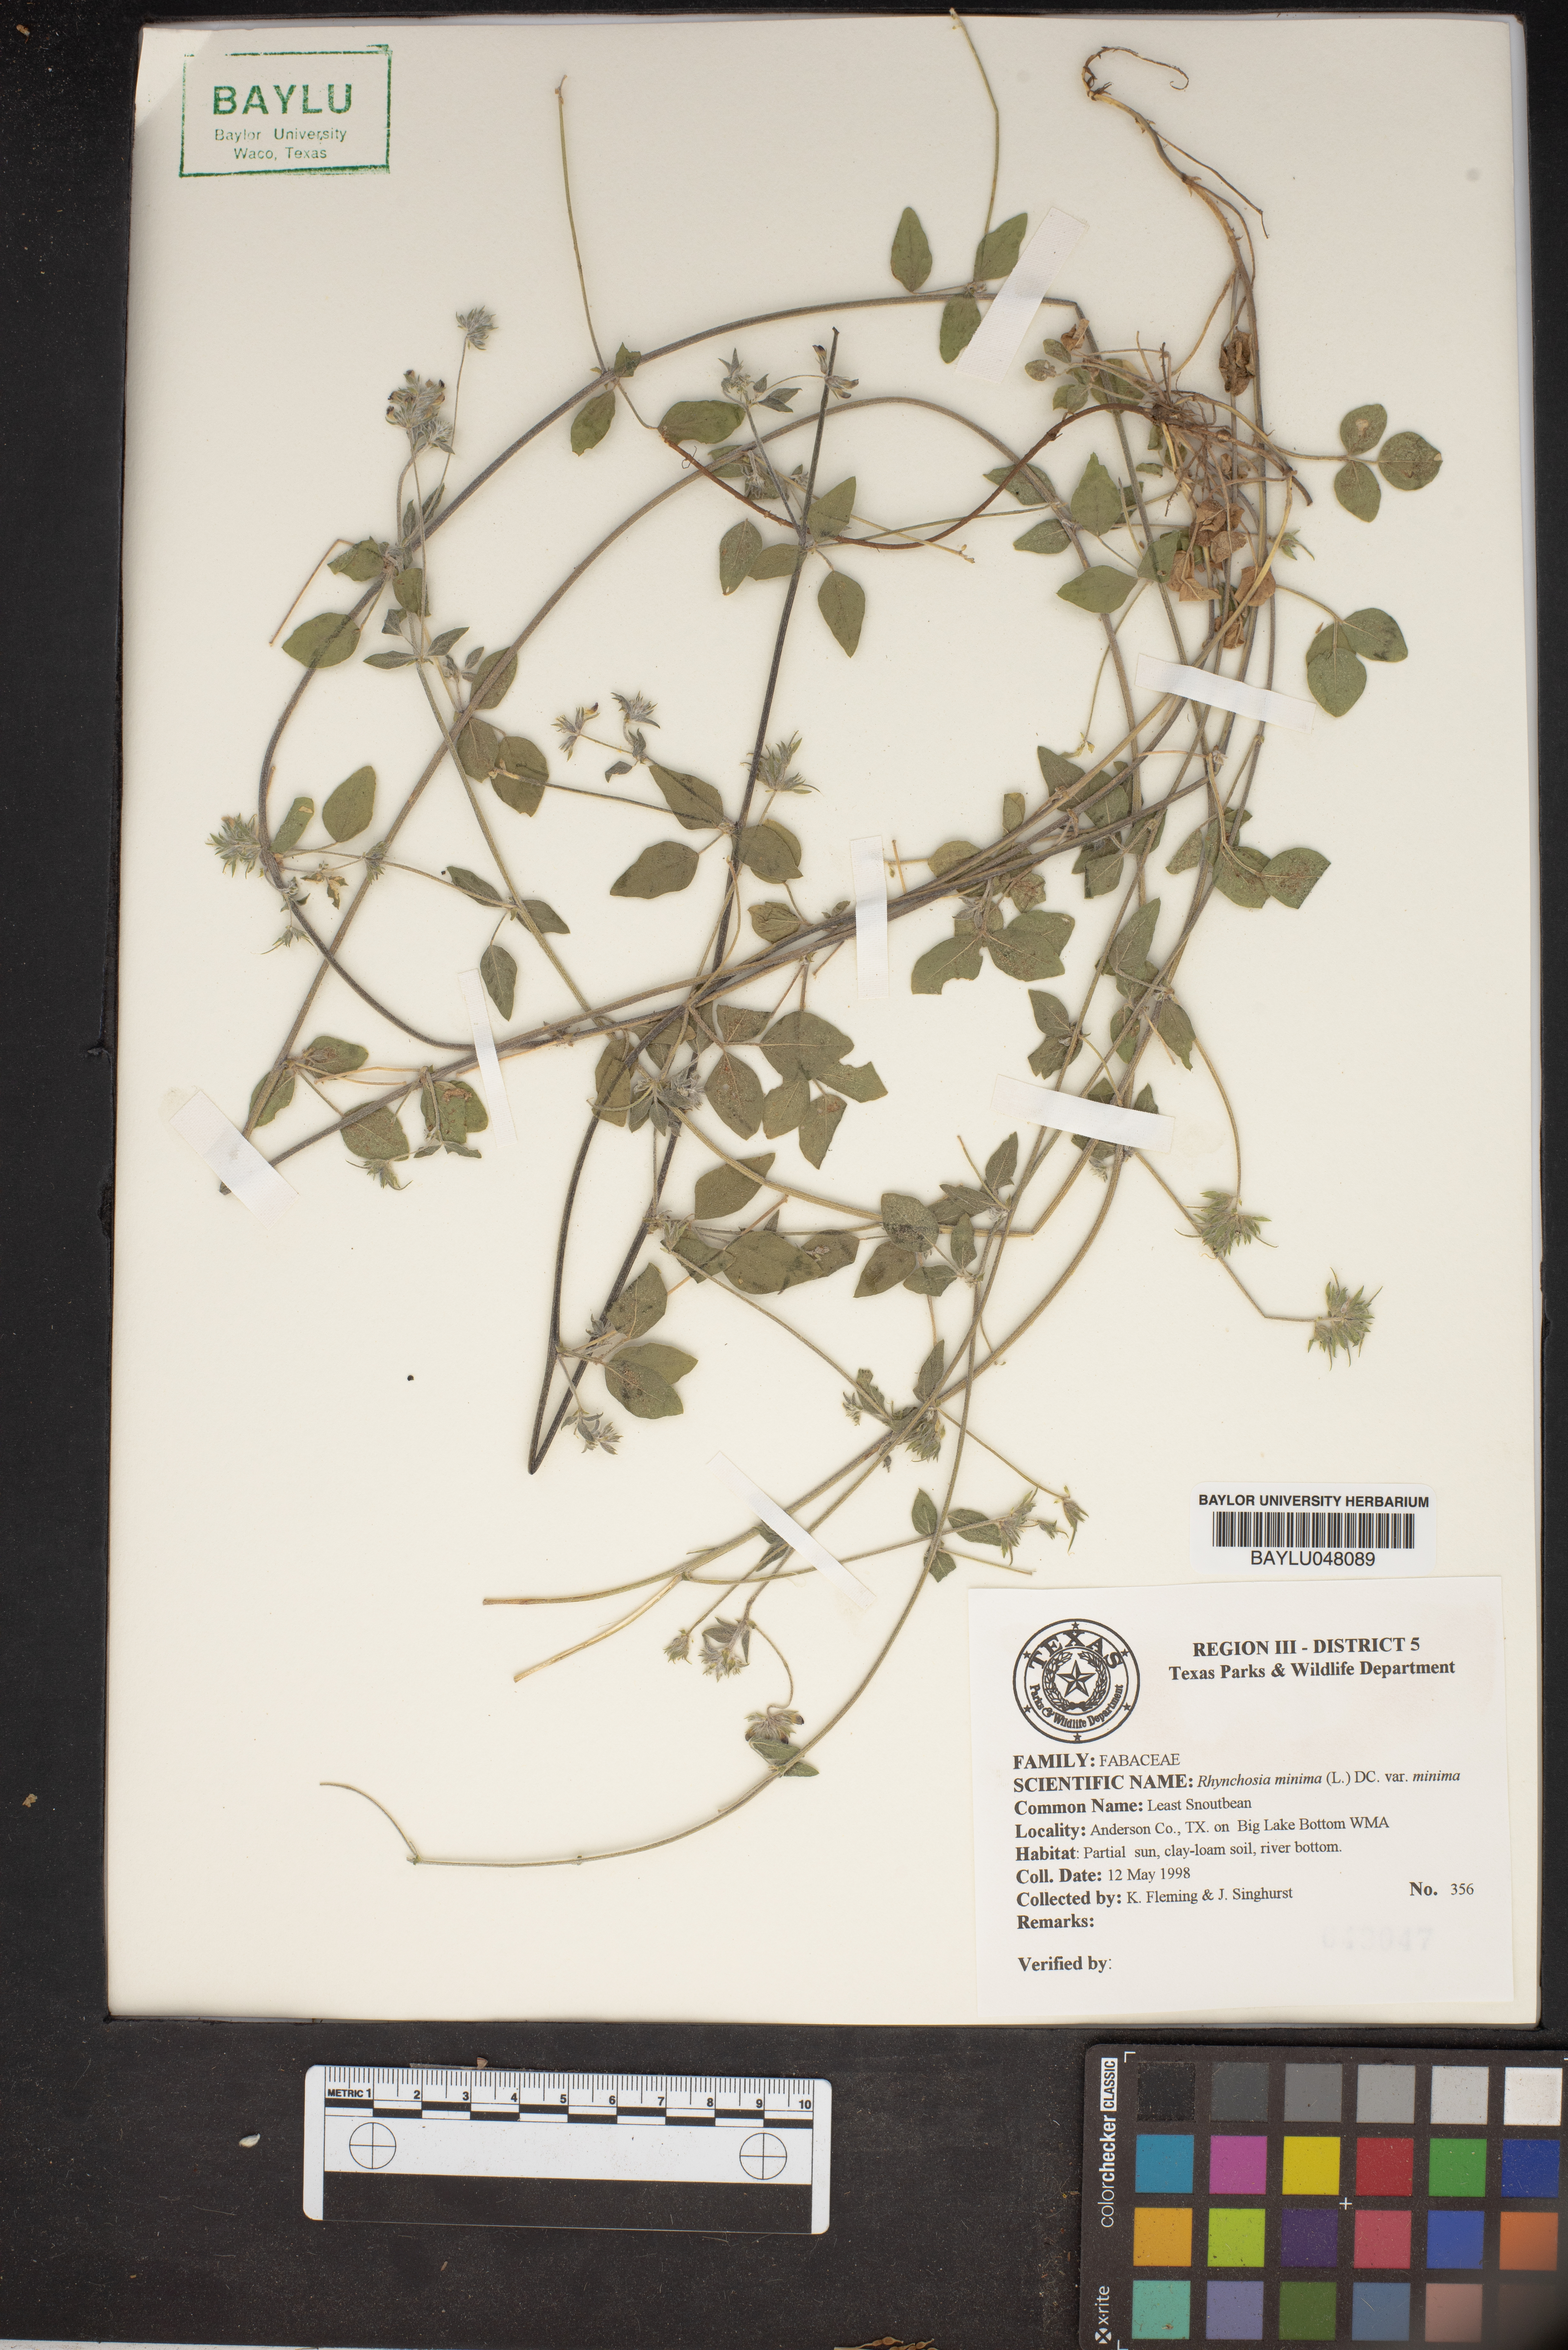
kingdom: Plantae
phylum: Tracheophyta
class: Magnoliopsida
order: Fabales
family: Fabaceae
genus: Rhynchosia
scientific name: Rhynchosia minima
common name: Least snoutbean
